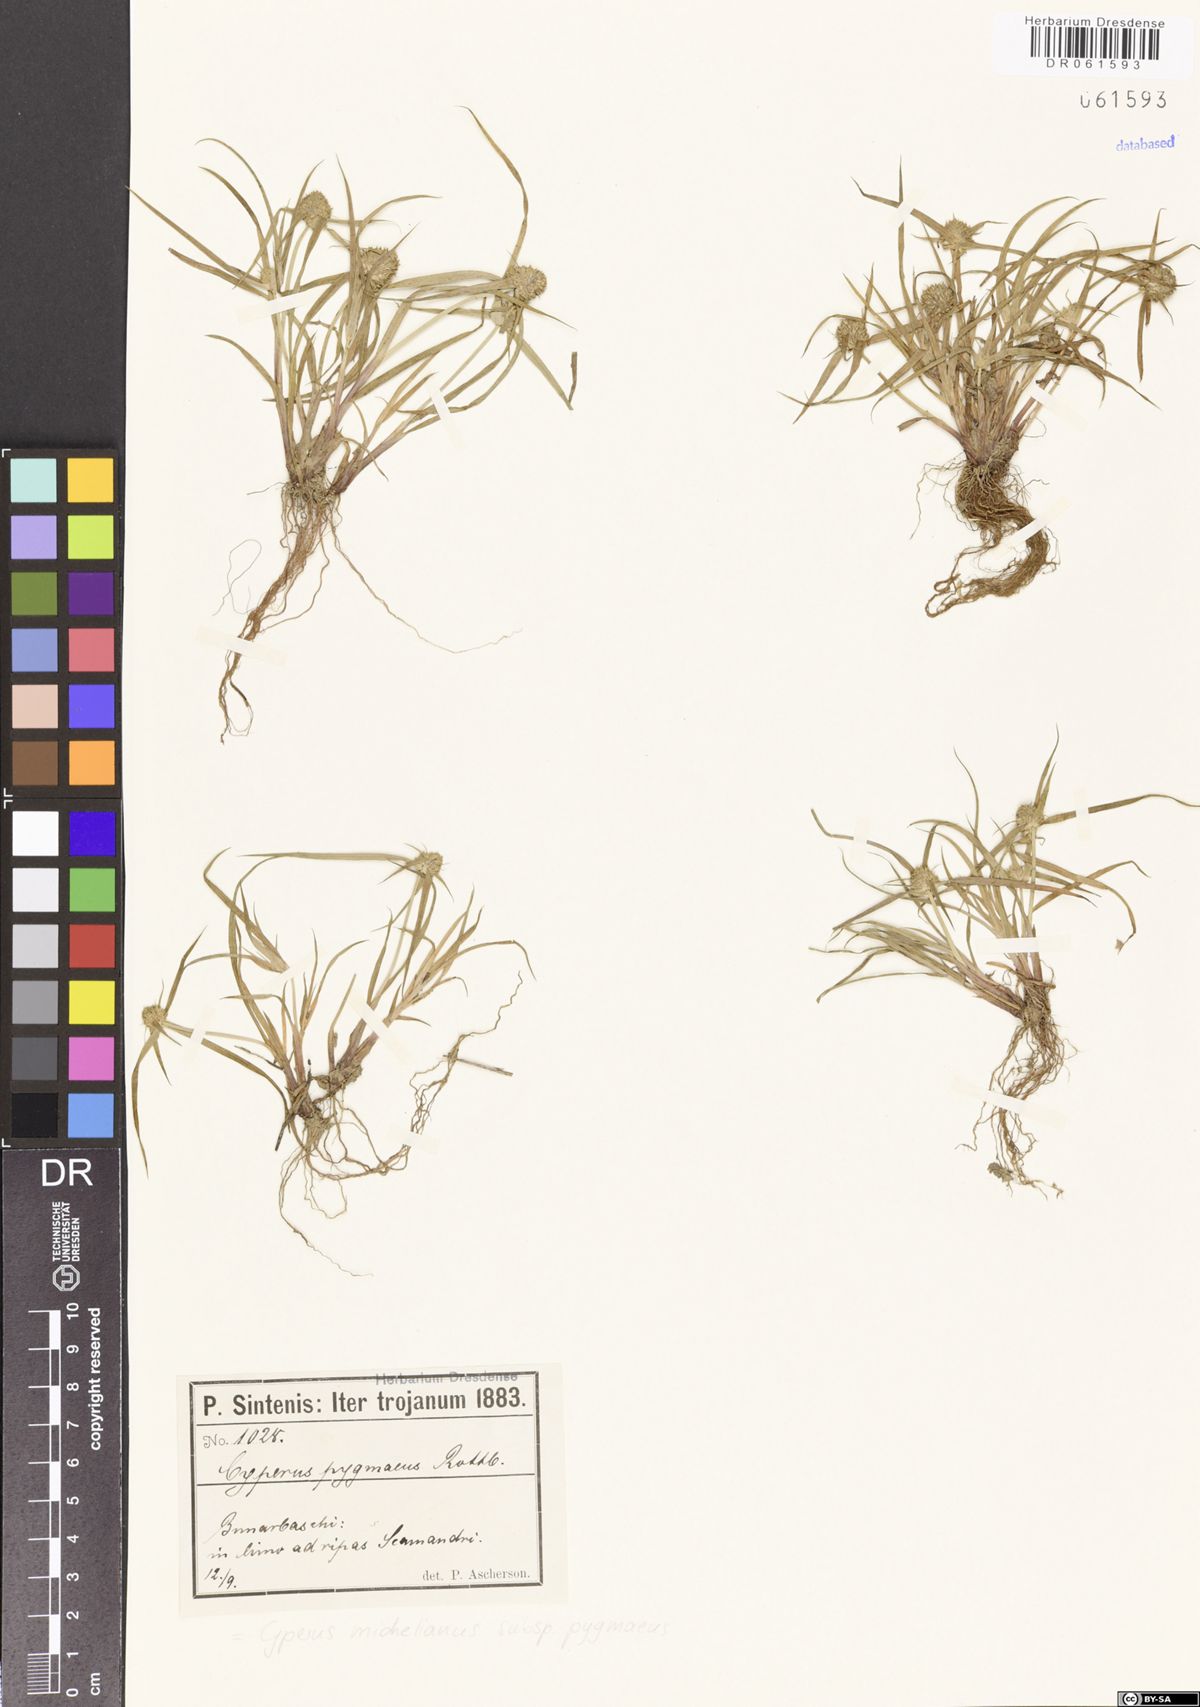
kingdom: Plantae
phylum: Tracheophyta
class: Liliopsida
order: Poales
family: Cyperaceae
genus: Cyperus
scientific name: Cyperus michelianus
